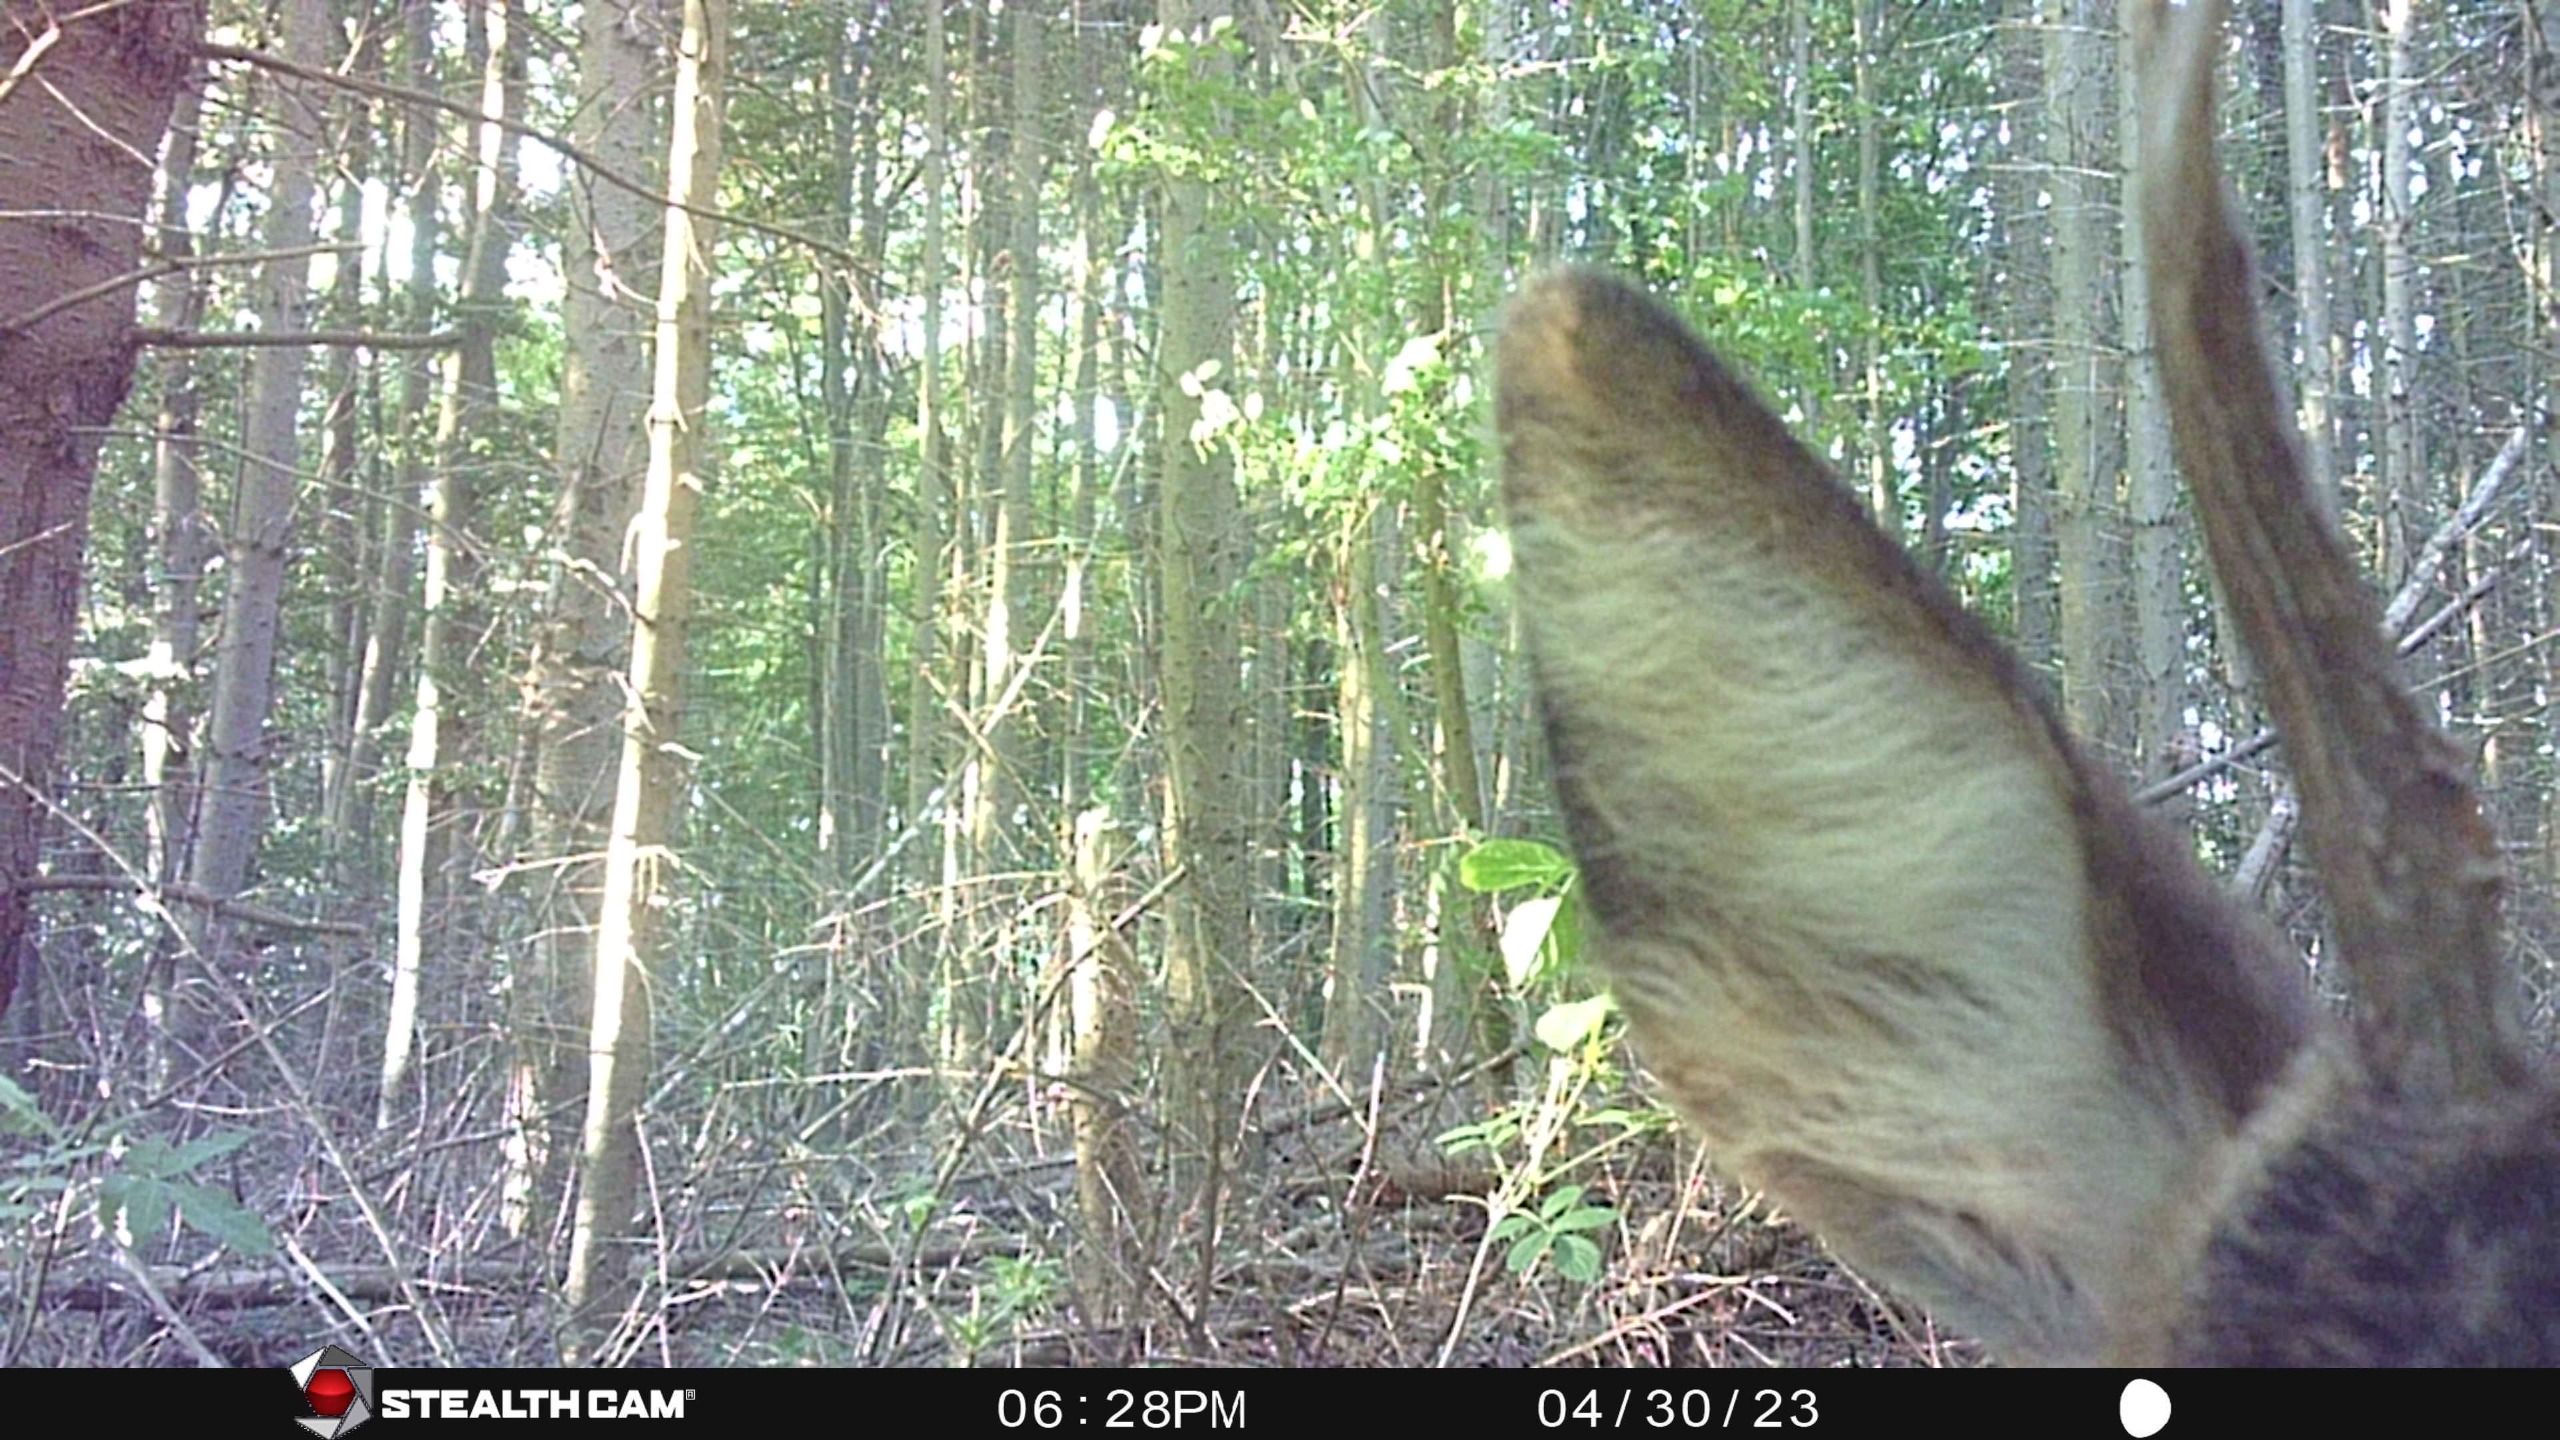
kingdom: Animalia
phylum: Chordata
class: Mammalia
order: Artiodactyla
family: Cervidae
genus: Capreolus
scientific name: Capreolus capreolus
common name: Rådyr
